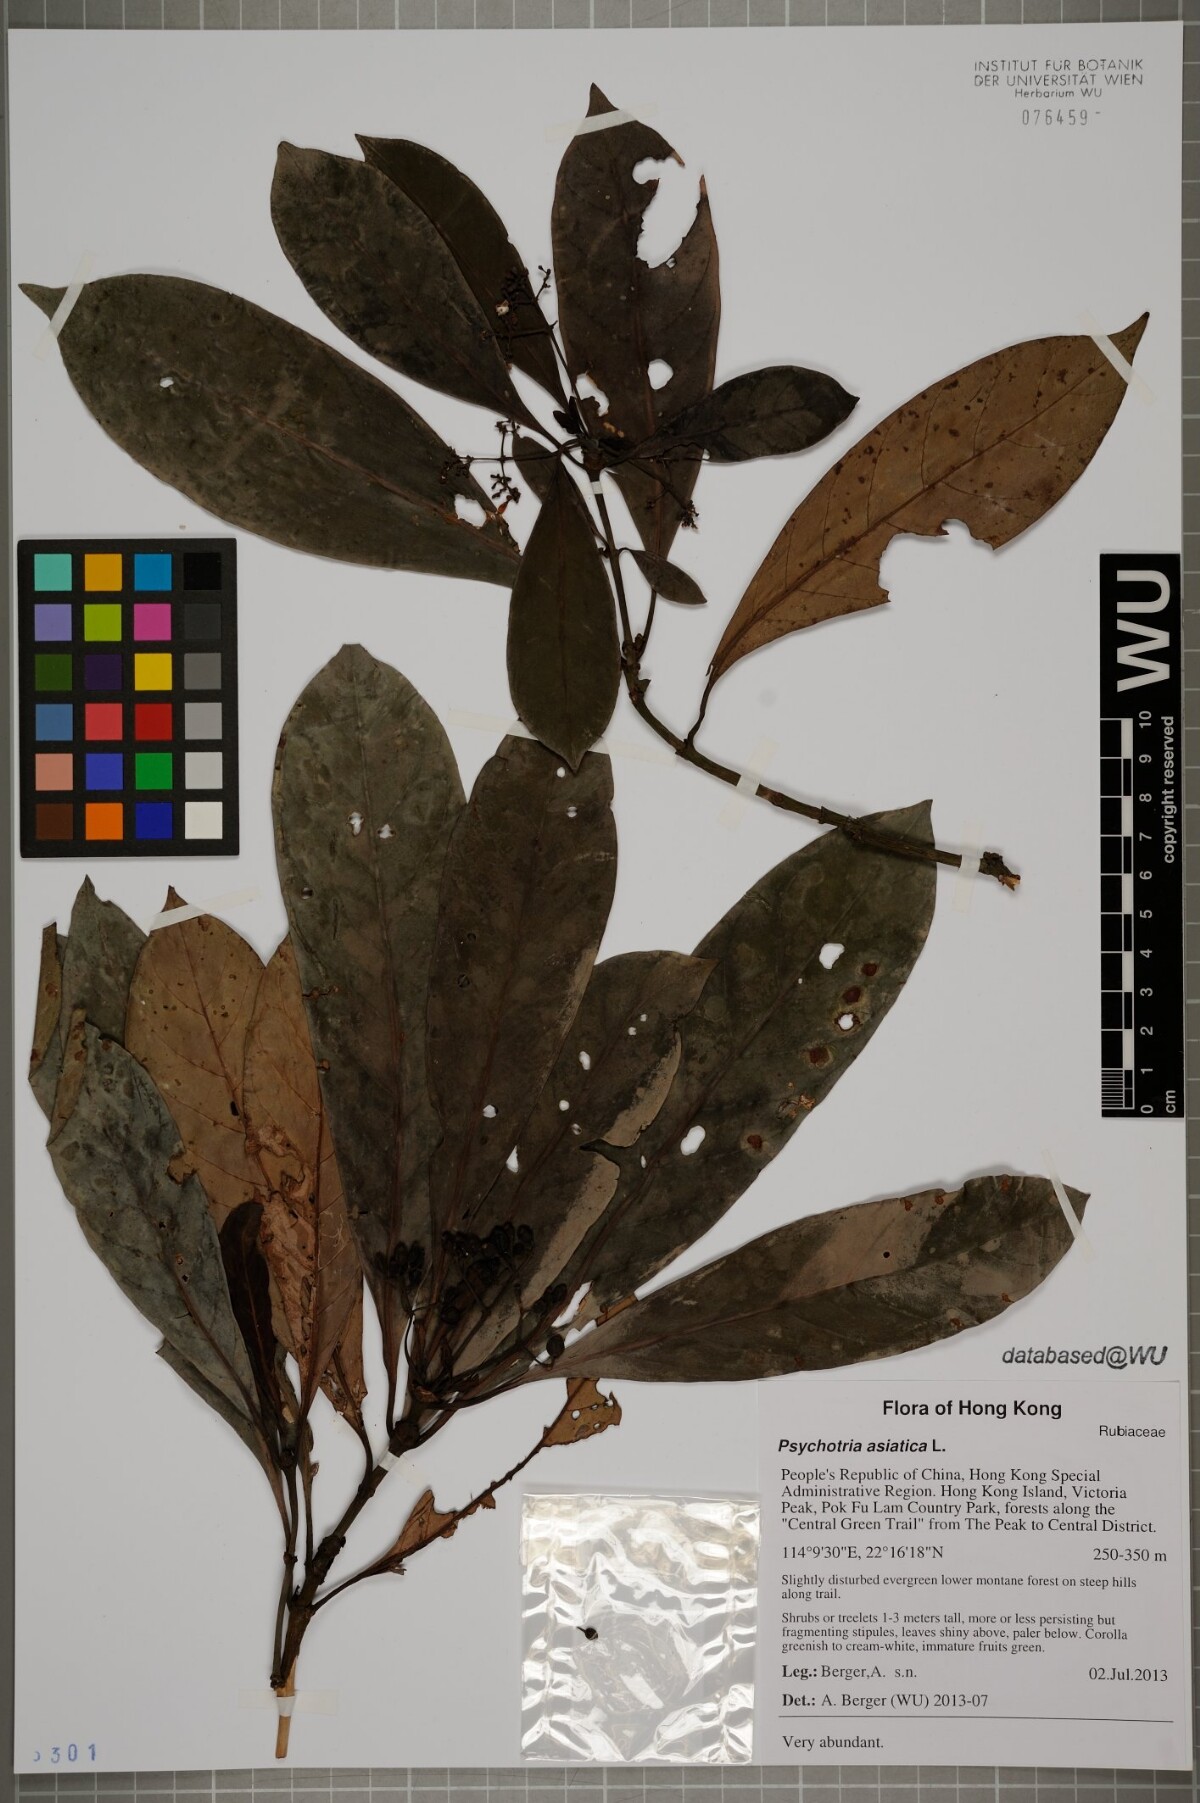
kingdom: Plantae
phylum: Tracheophyta
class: Magnoliopsida
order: Gentianales
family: Rubiaceae
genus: Psychotria
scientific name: Psychotria asiatica
